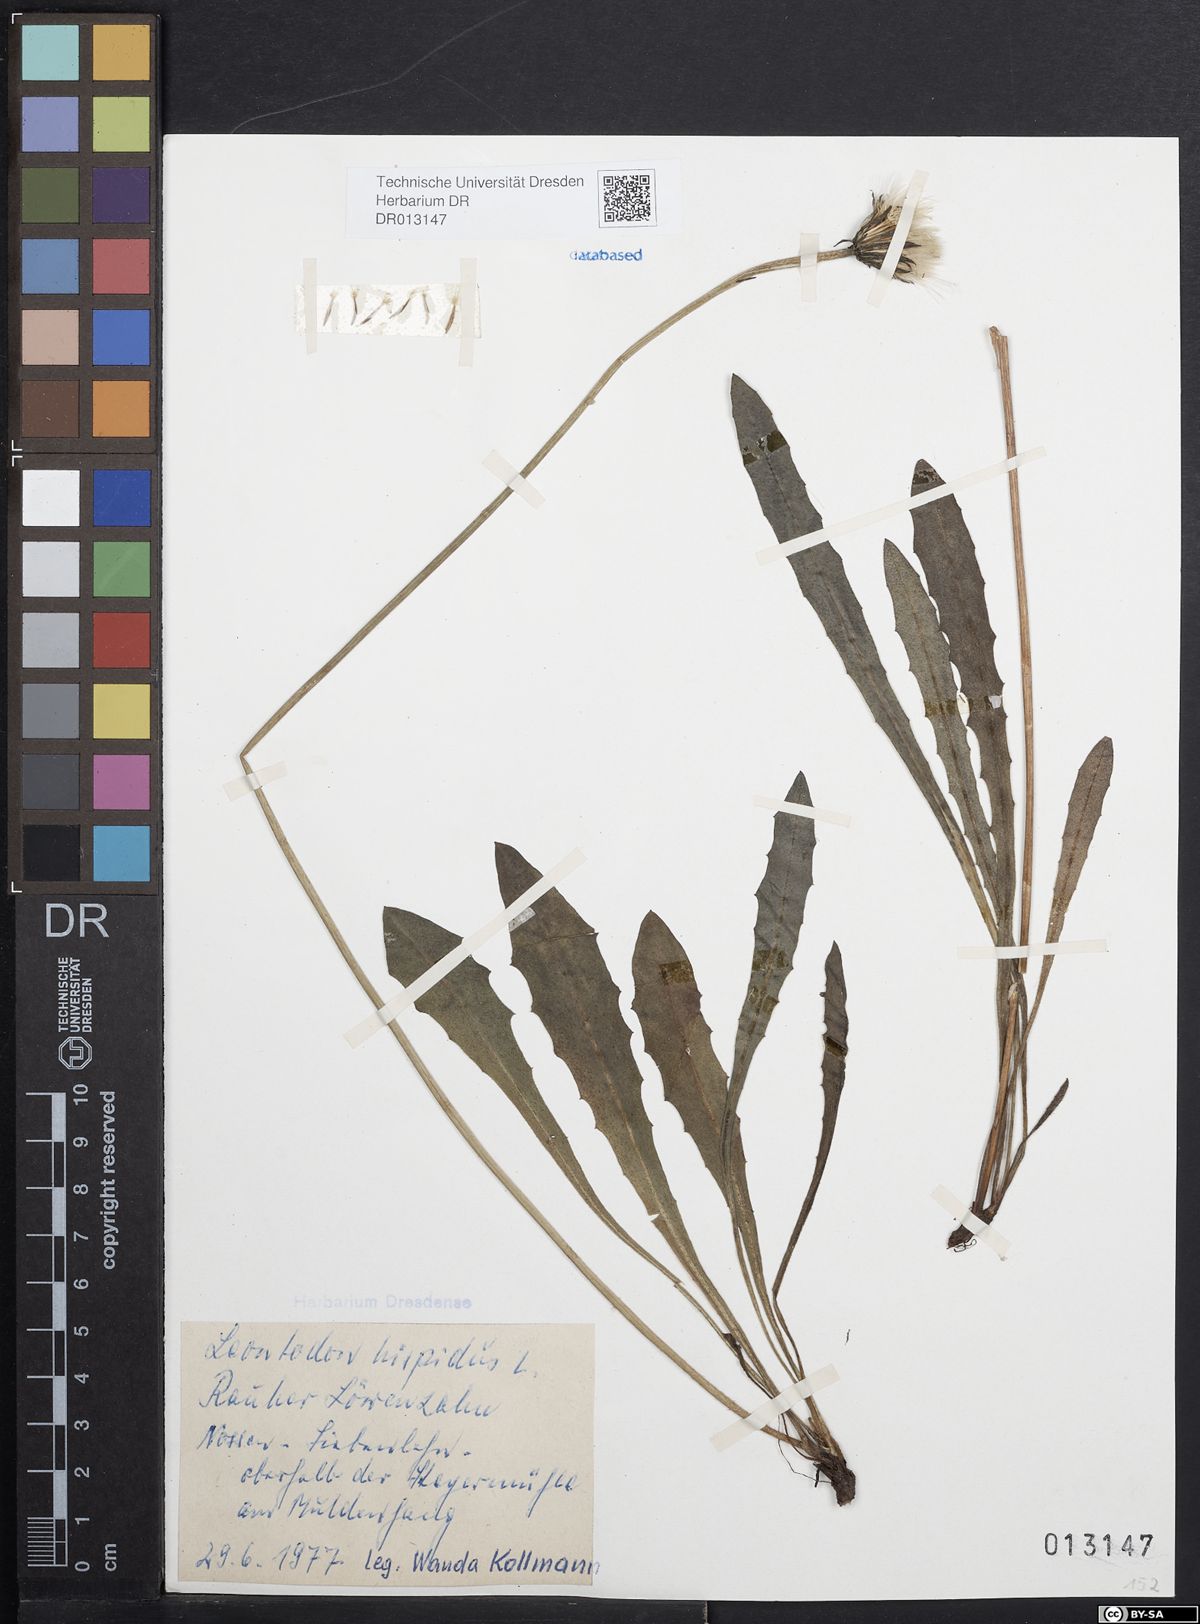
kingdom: Plantae
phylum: Tracheophyta
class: Magnoliopsida
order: Asterales
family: Asteraceae
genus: Leontodon
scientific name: Leontodon hispidus
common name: Rough hawkbit
